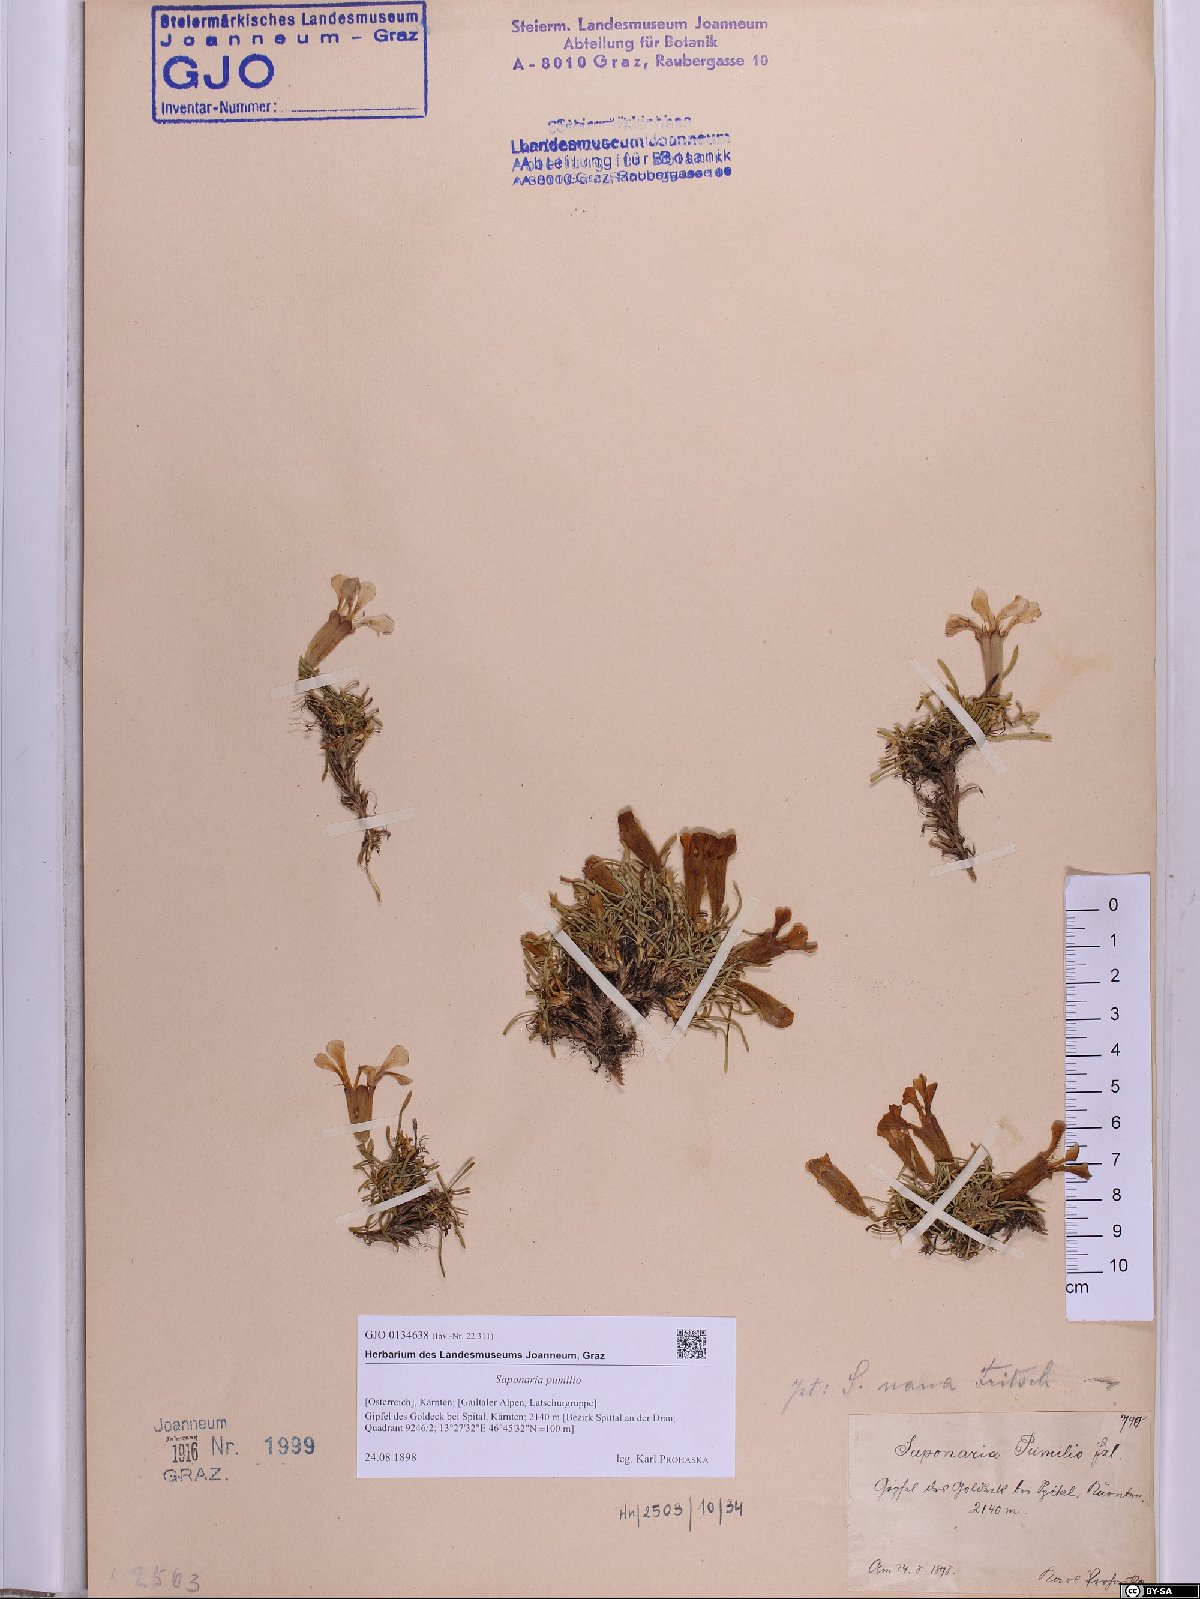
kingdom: Plantae
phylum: Tracheophyta
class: Magnoliopsida
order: Caryophyllales
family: Caryophyllaceae
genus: Saponaria
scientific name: Saponaria pumilio
